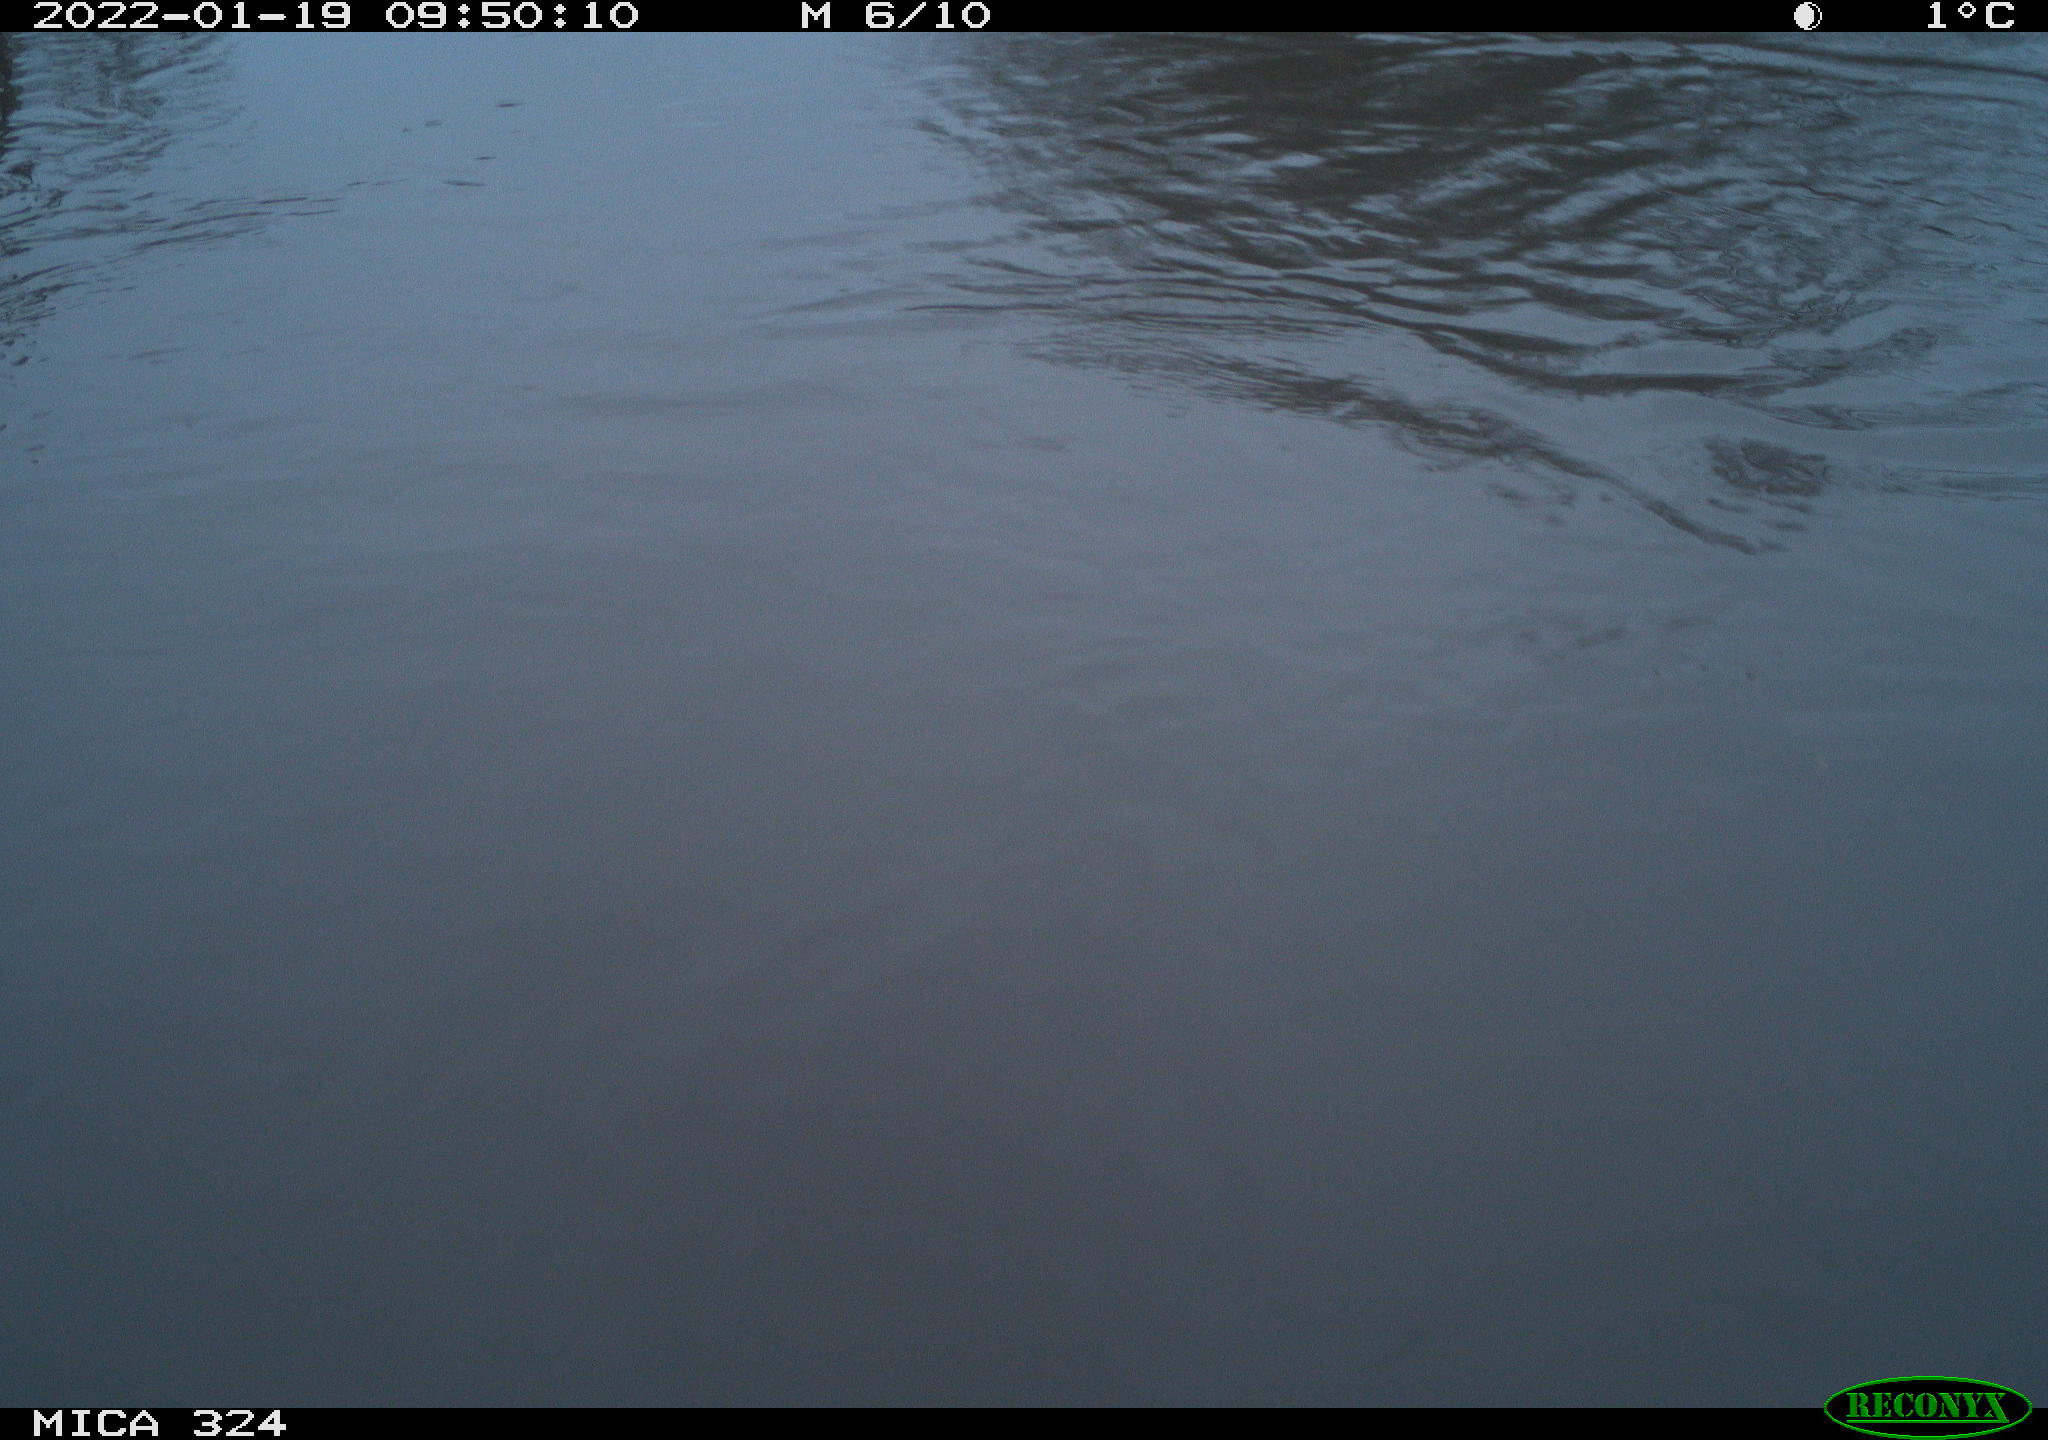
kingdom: Animalia
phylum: Chordata
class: Aves
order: Gruiformes
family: Rallidae
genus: Gallinula
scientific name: Gallinula chloropus
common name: Common moorhen
